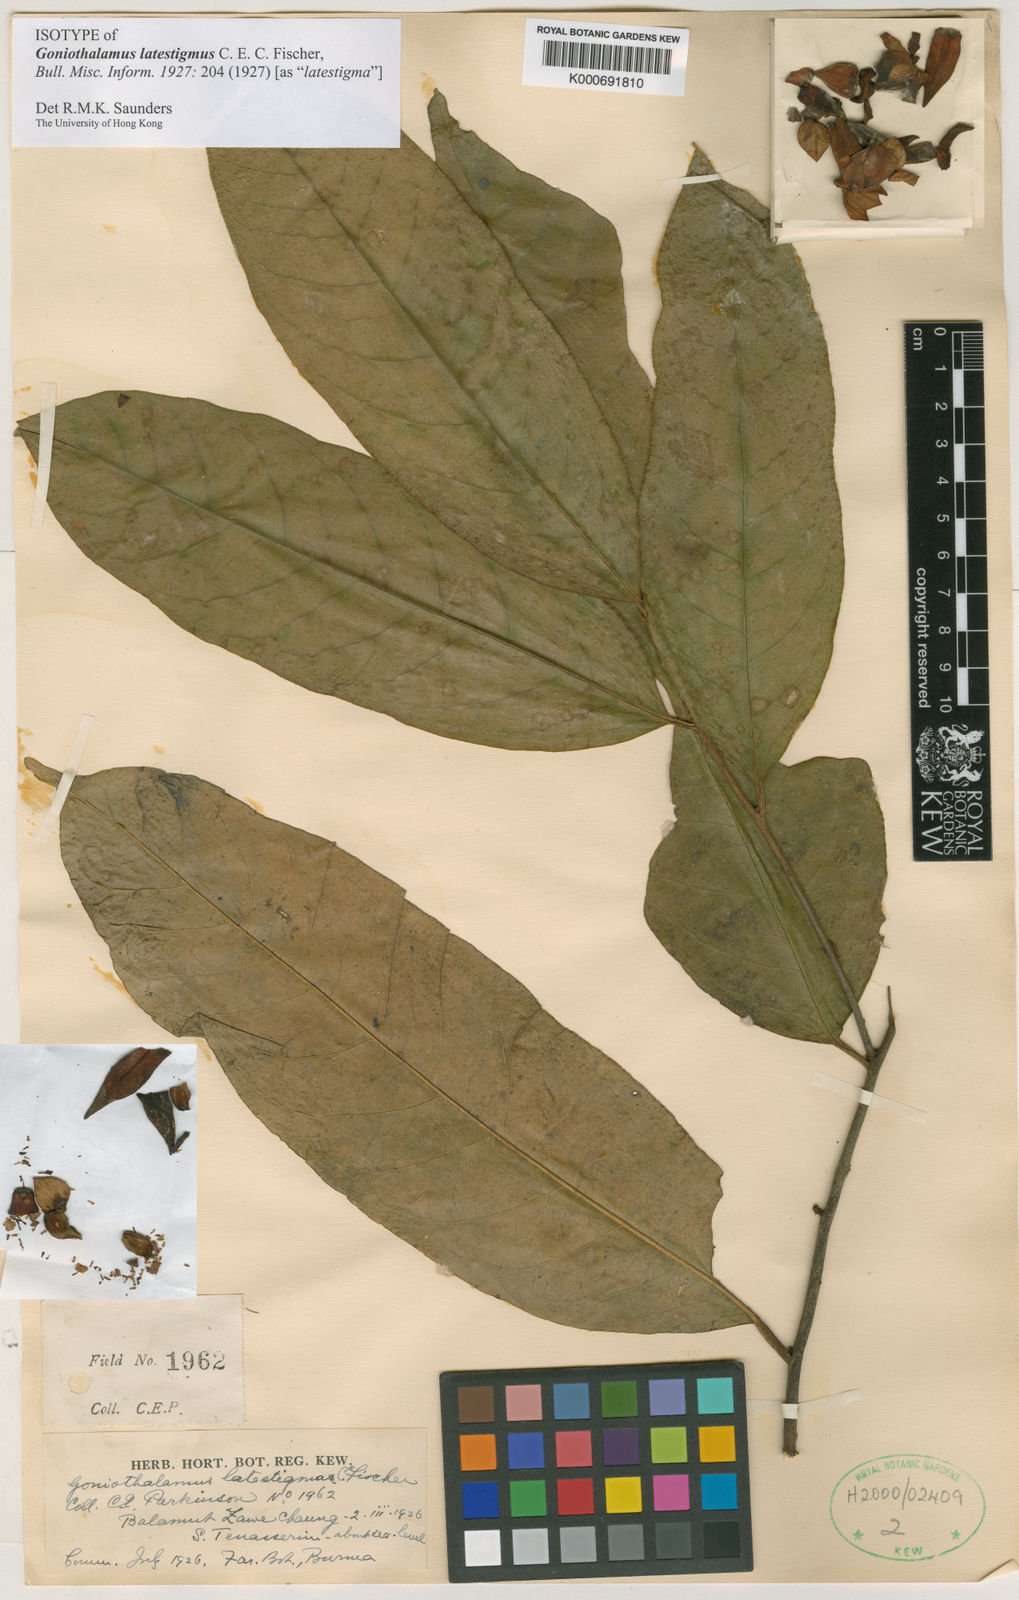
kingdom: Plantae
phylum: Tracheophyta
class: Magnoliopsida
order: Magnoliales
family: Annonaceae
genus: Goniothalamus
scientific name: Goniothalamus latestigma
